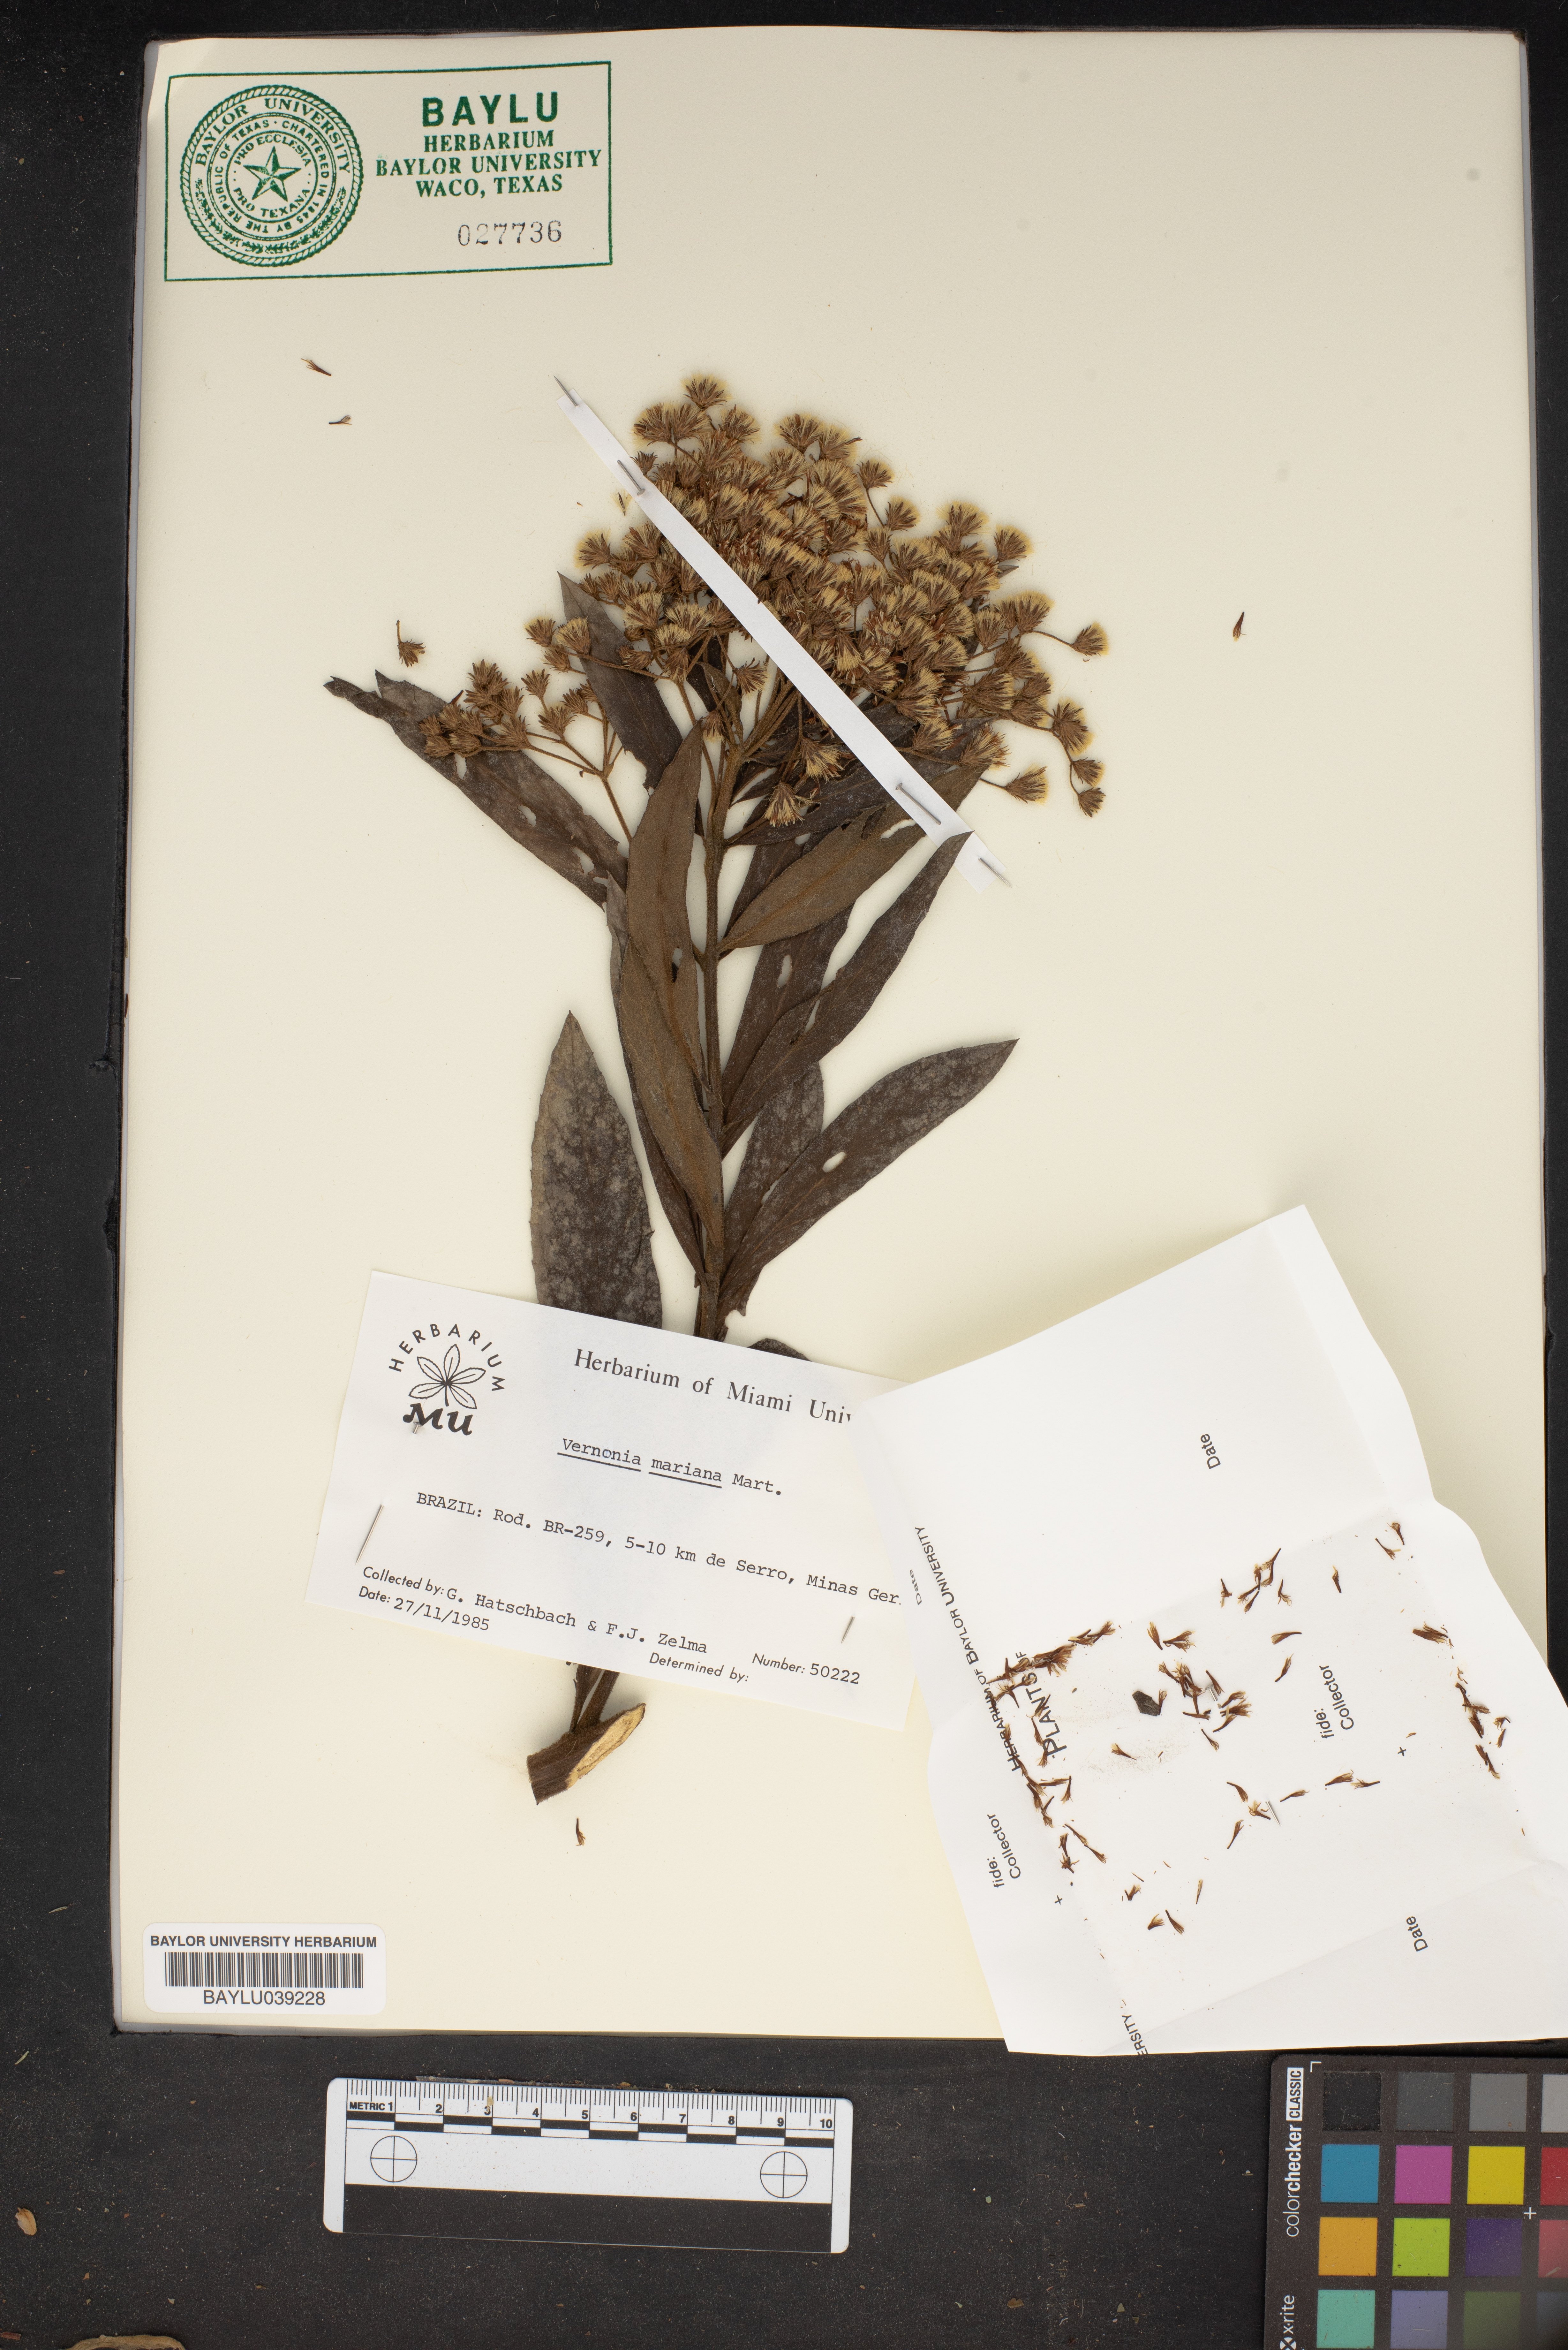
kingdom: Plantae
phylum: Tracheophyta
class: Magnoliopsida
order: Asterales
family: Asteraceae
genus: Vernonanthura
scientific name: Vernonanthura mariana
